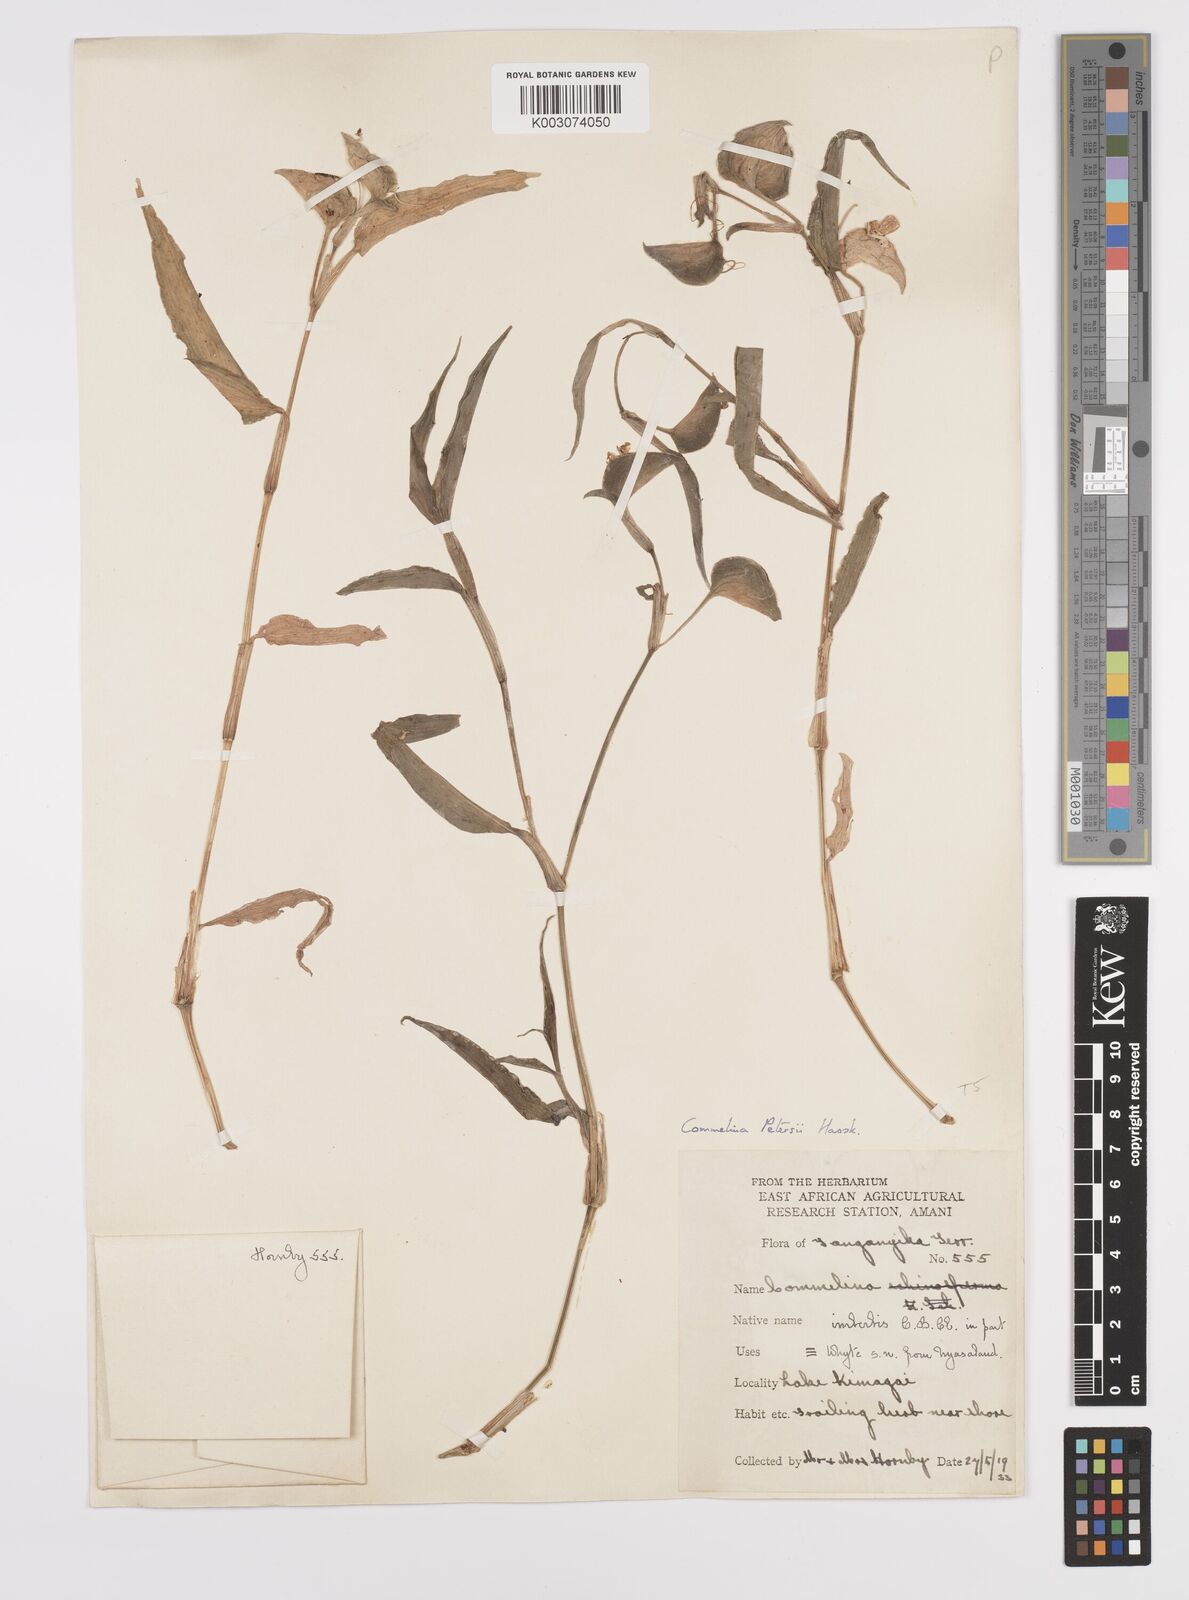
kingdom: Plantae
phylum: Tracheophyta
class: Liliopsida
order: Commelinales
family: Commelinaceae
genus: Commelina
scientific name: Commelina petersii
